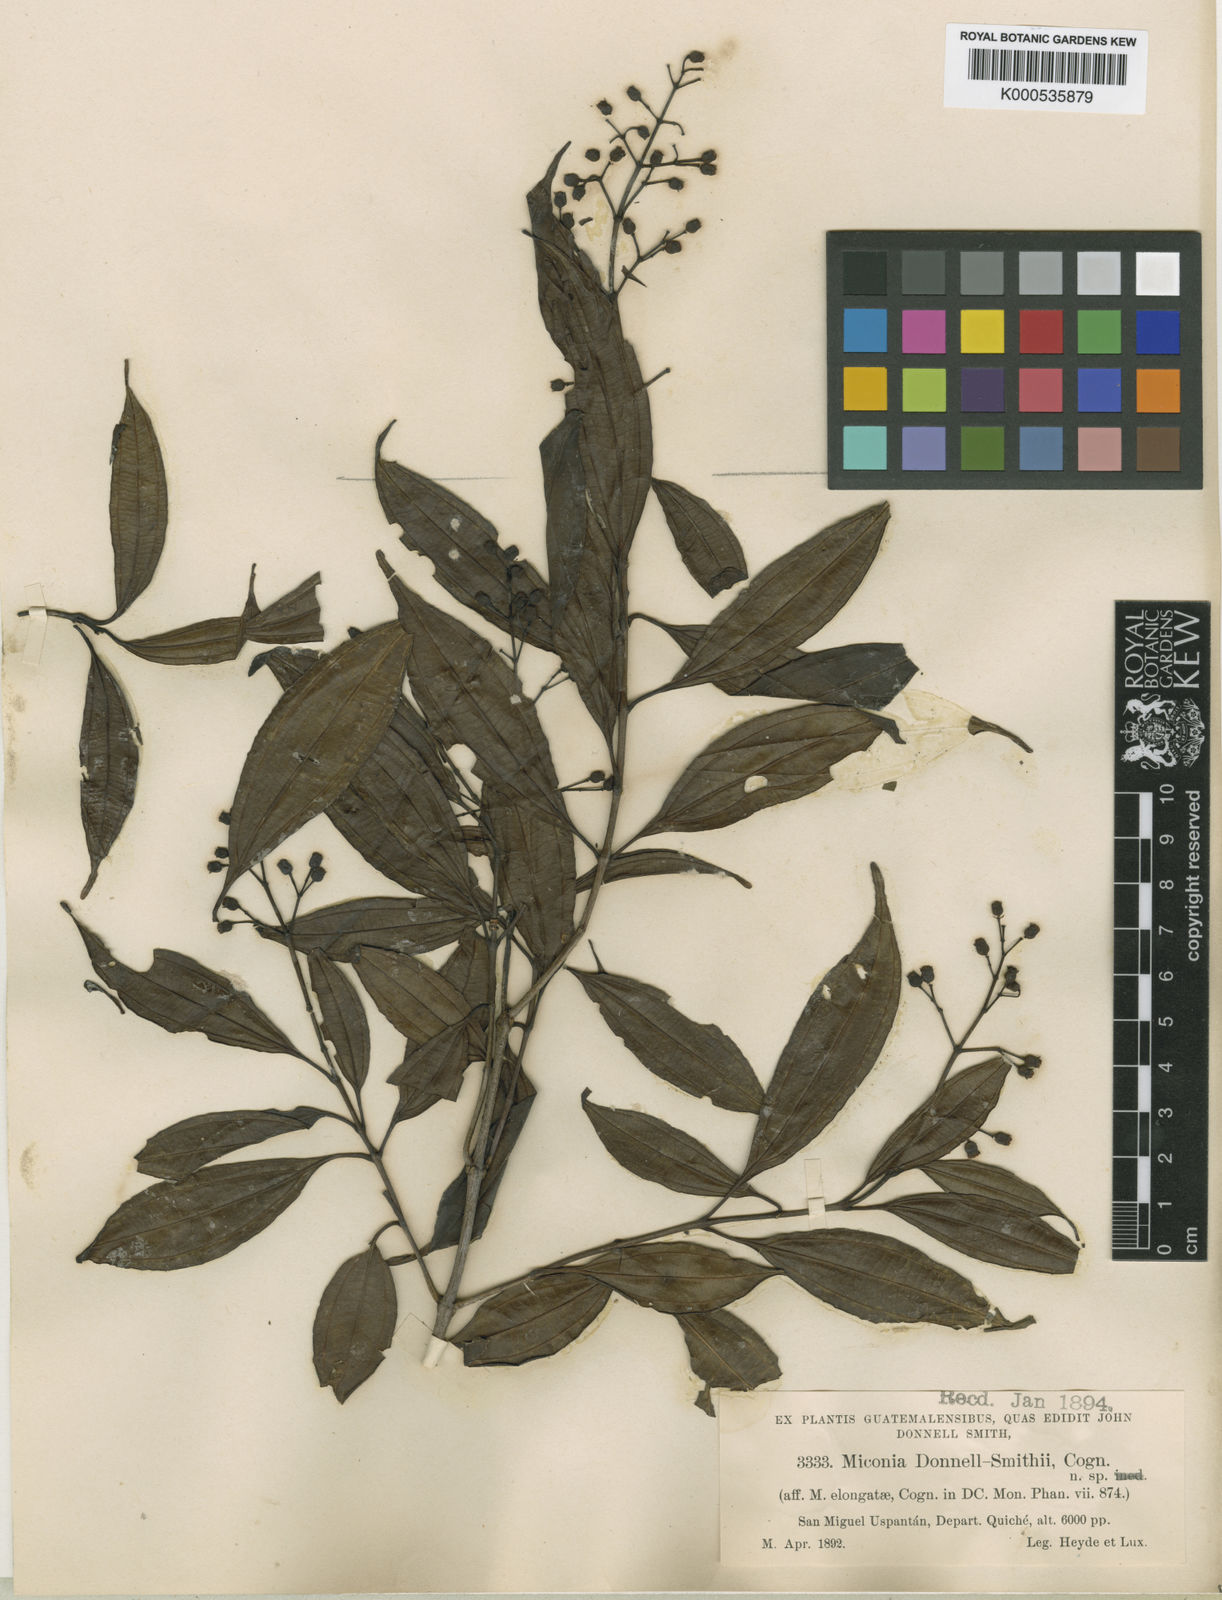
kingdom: Plantae
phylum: Tracheophyta
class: Magnoliopsida
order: Myrtales
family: Melastomataceae
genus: Miconia
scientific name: Miconia livida
